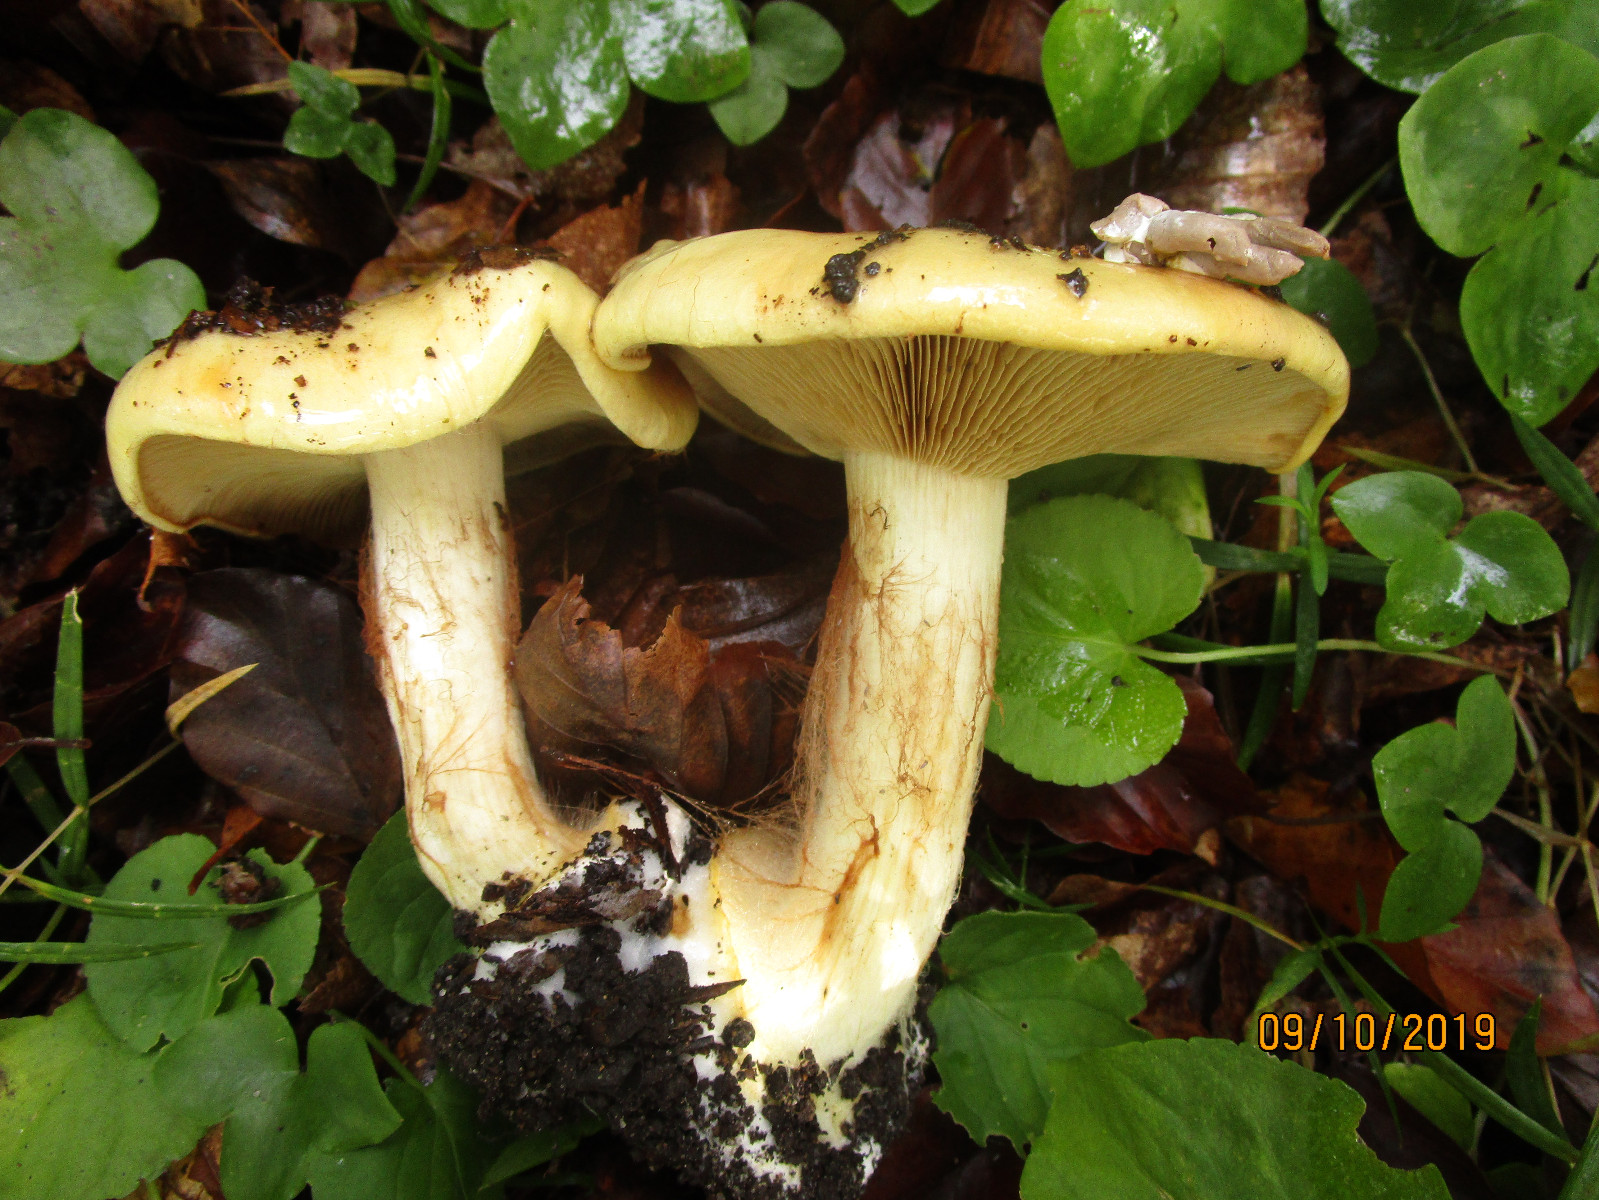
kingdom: Fungi
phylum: Basidiomycota
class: Agaricomycetes
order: Agaricales
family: Cortinariaceae
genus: Calonarius
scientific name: Calonarius humolens
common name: radise-slørhat
